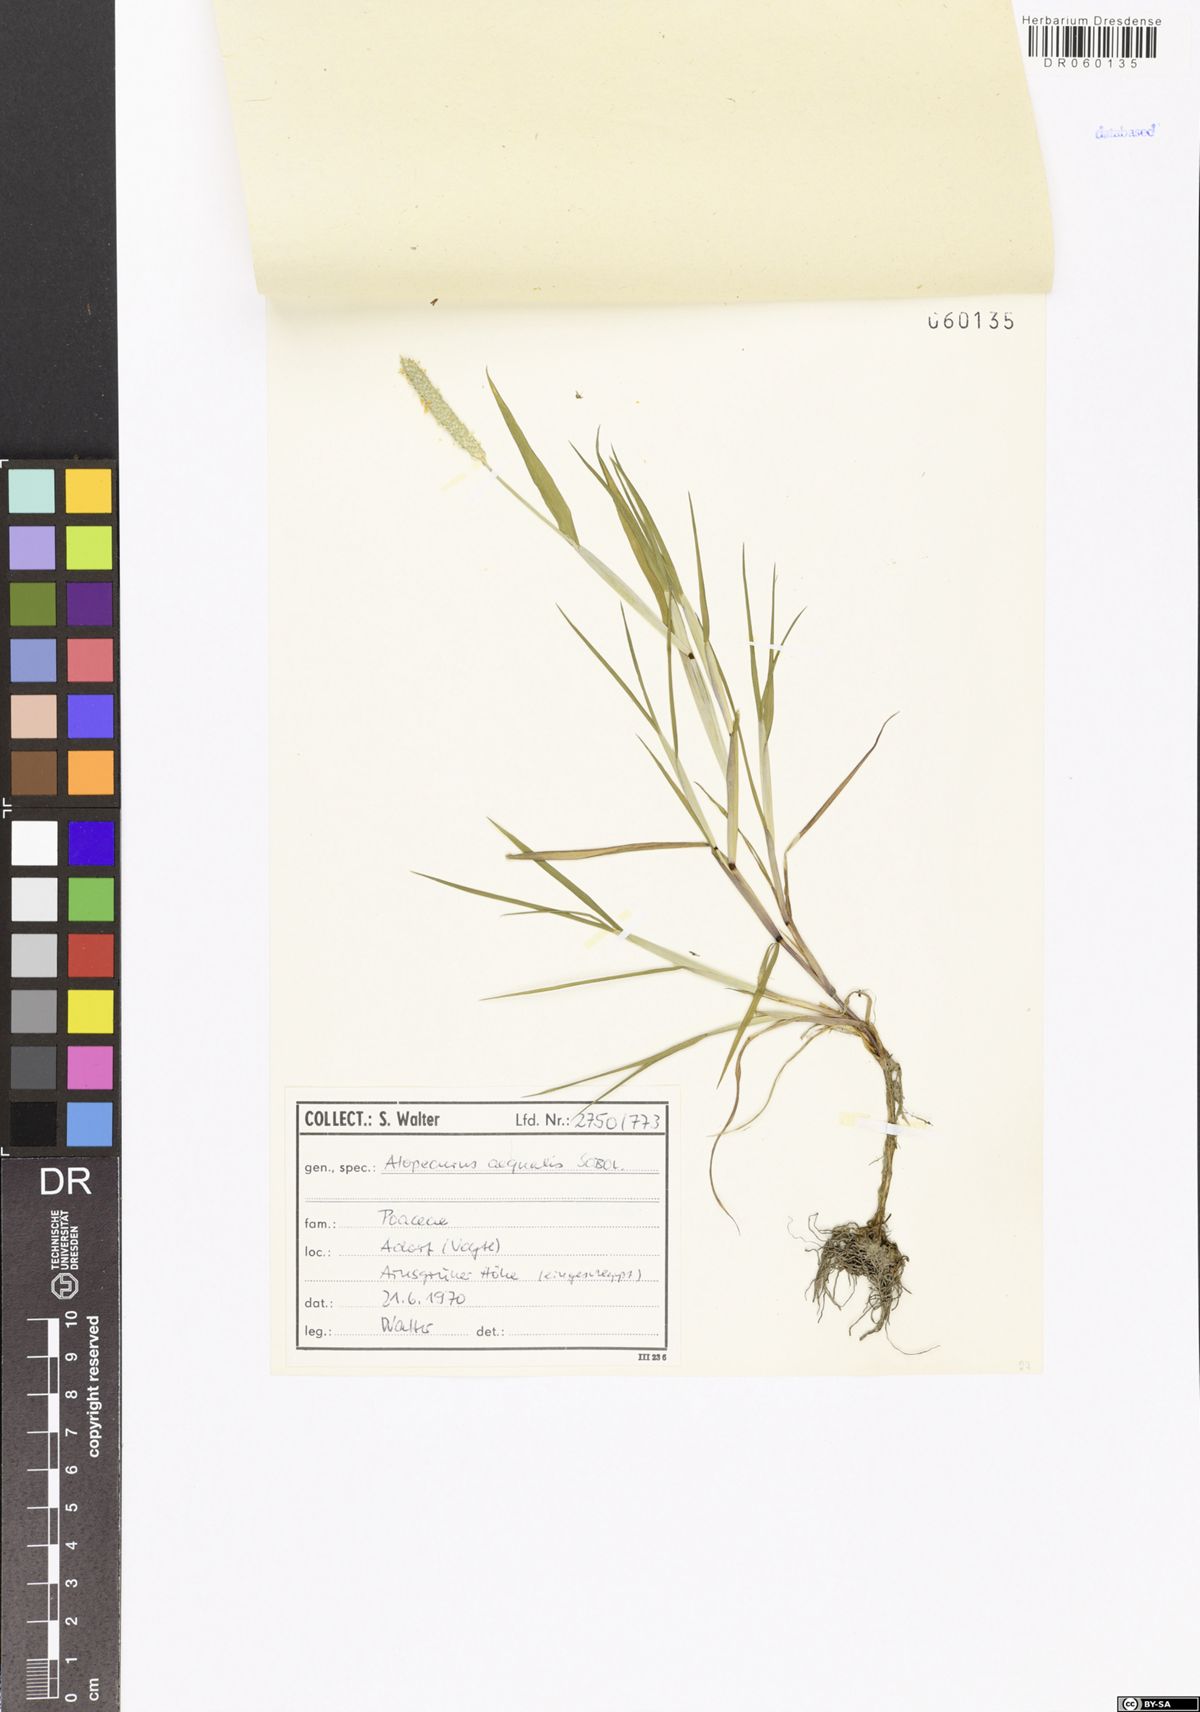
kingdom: Plantae
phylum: Tracheophyta
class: Liliopsida
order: Poales
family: Poaceae
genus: Alopecurus
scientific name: Alopecurus aequalis
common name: Orange foxtail
